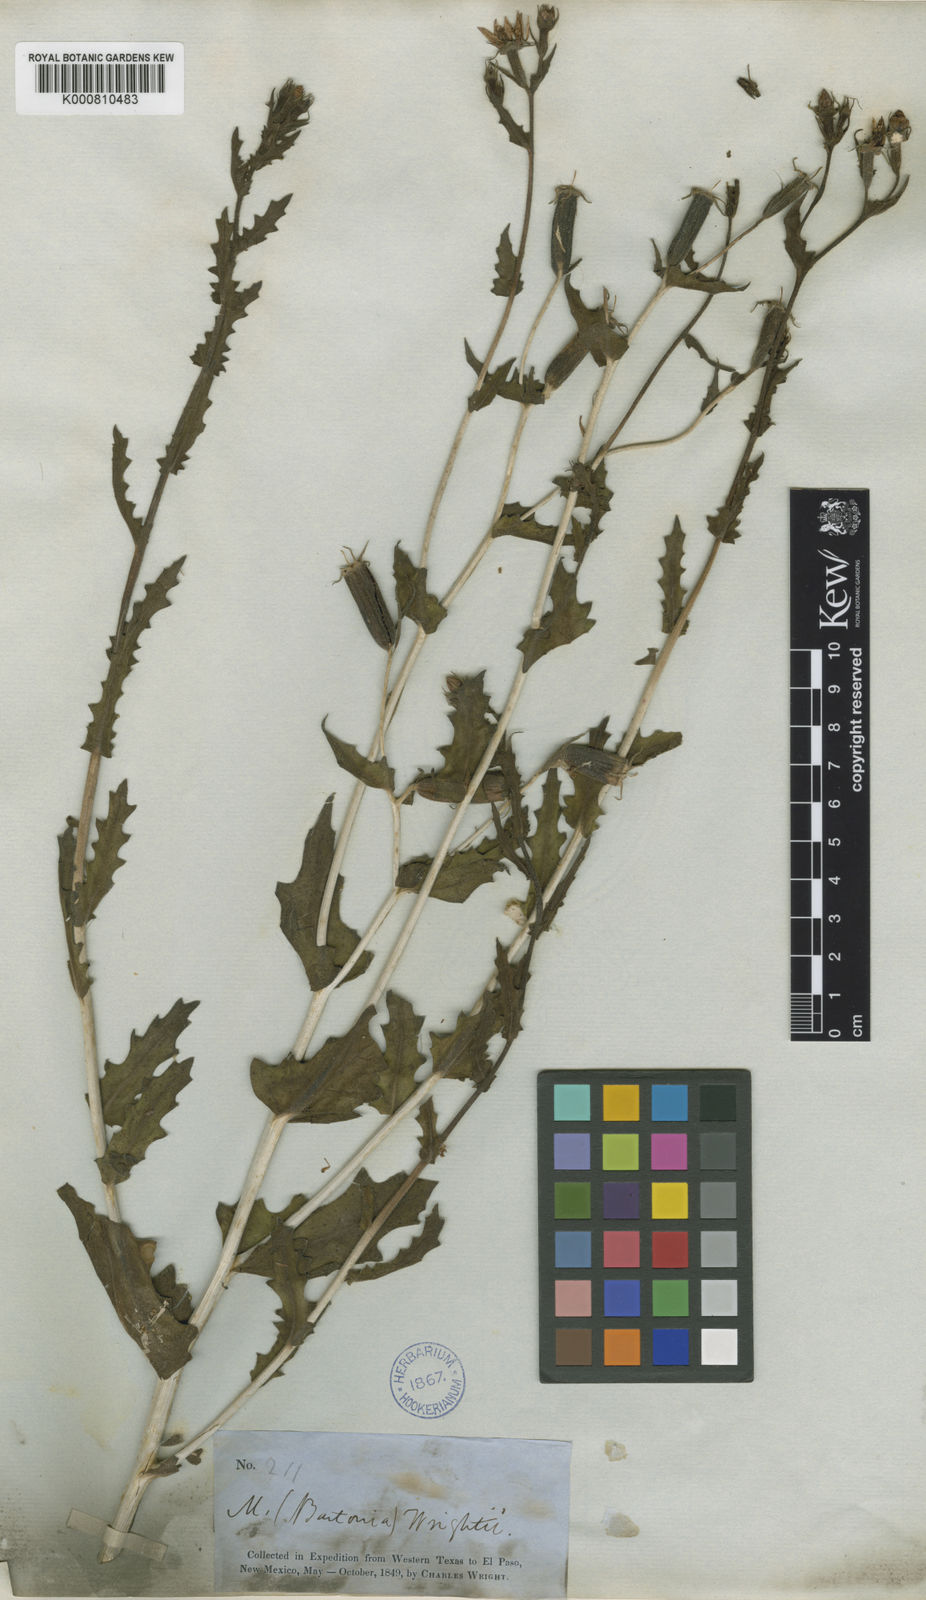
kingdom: Plantae
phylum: Tracheophyta
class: Magnoliopsida
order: Cornales
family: Loasaceae
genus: Mentzelia
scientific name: Mentzelia
